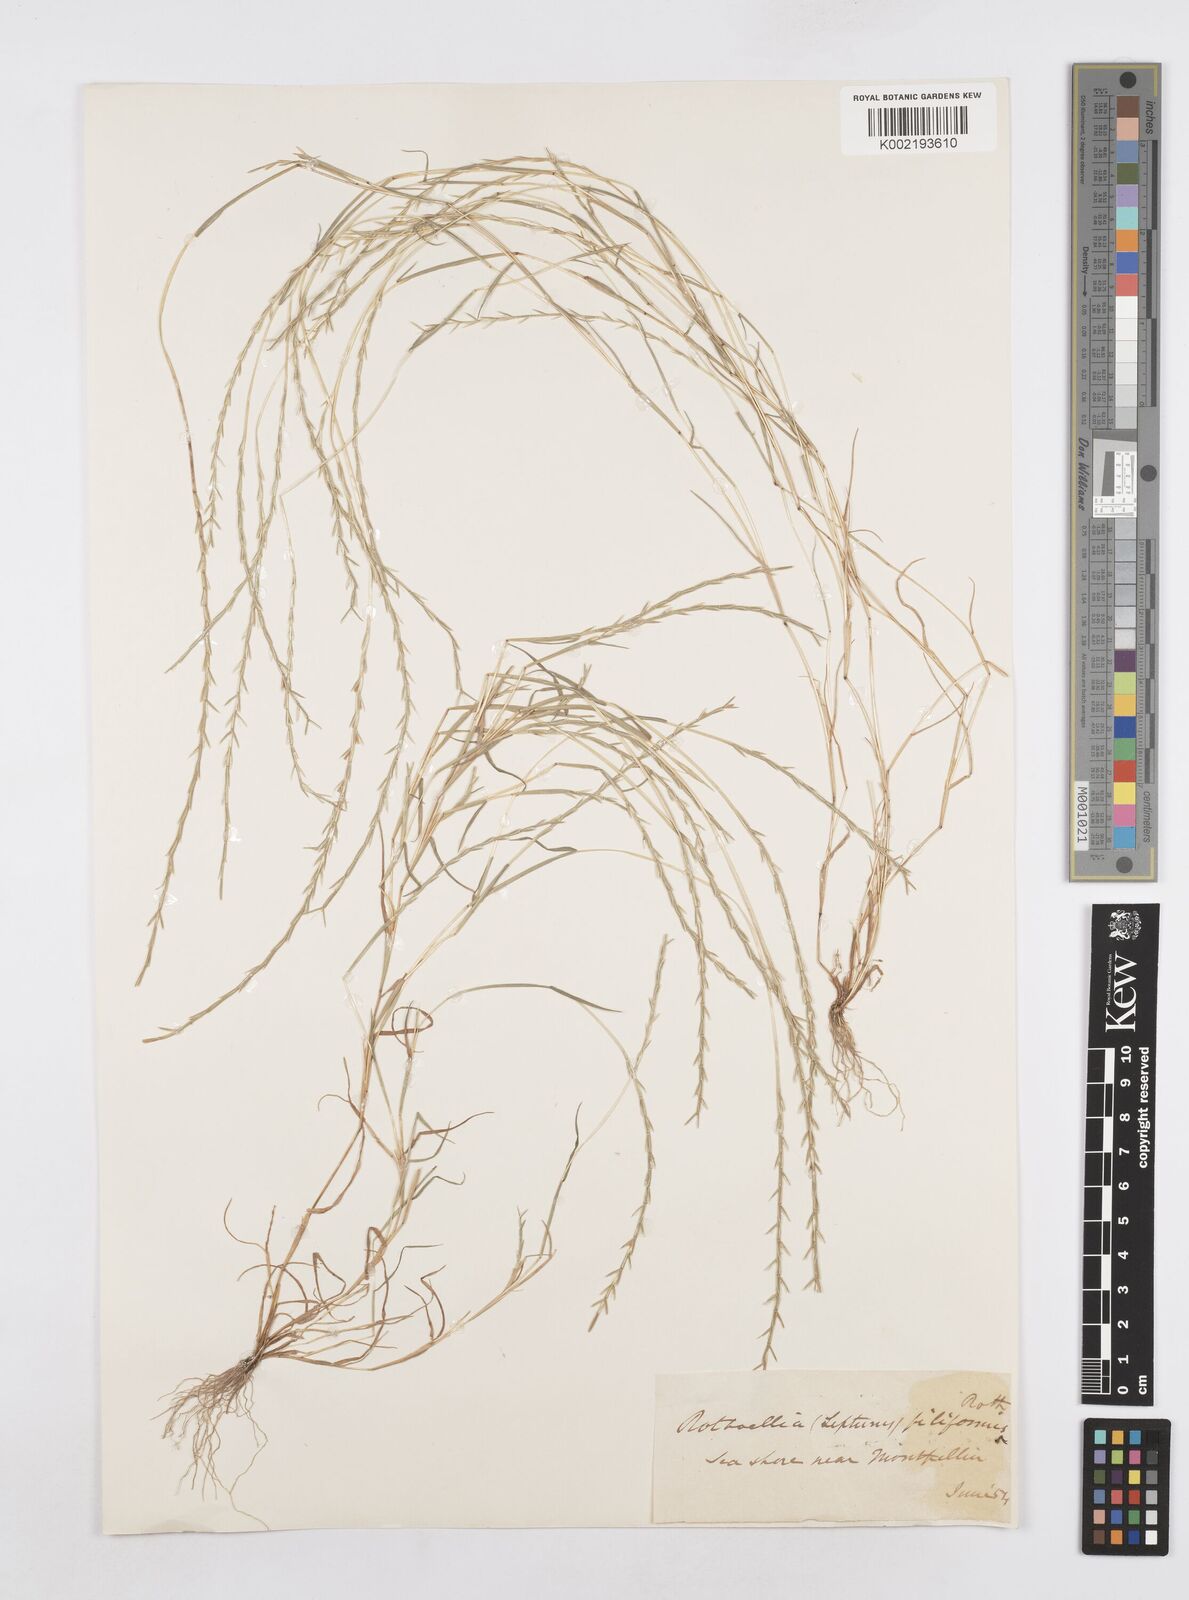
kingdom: Plantae
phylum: Tracheophyta
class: Liliopsida
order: Poales
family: Poaceae
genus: Parapholis
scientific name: Parapholis filiformis
